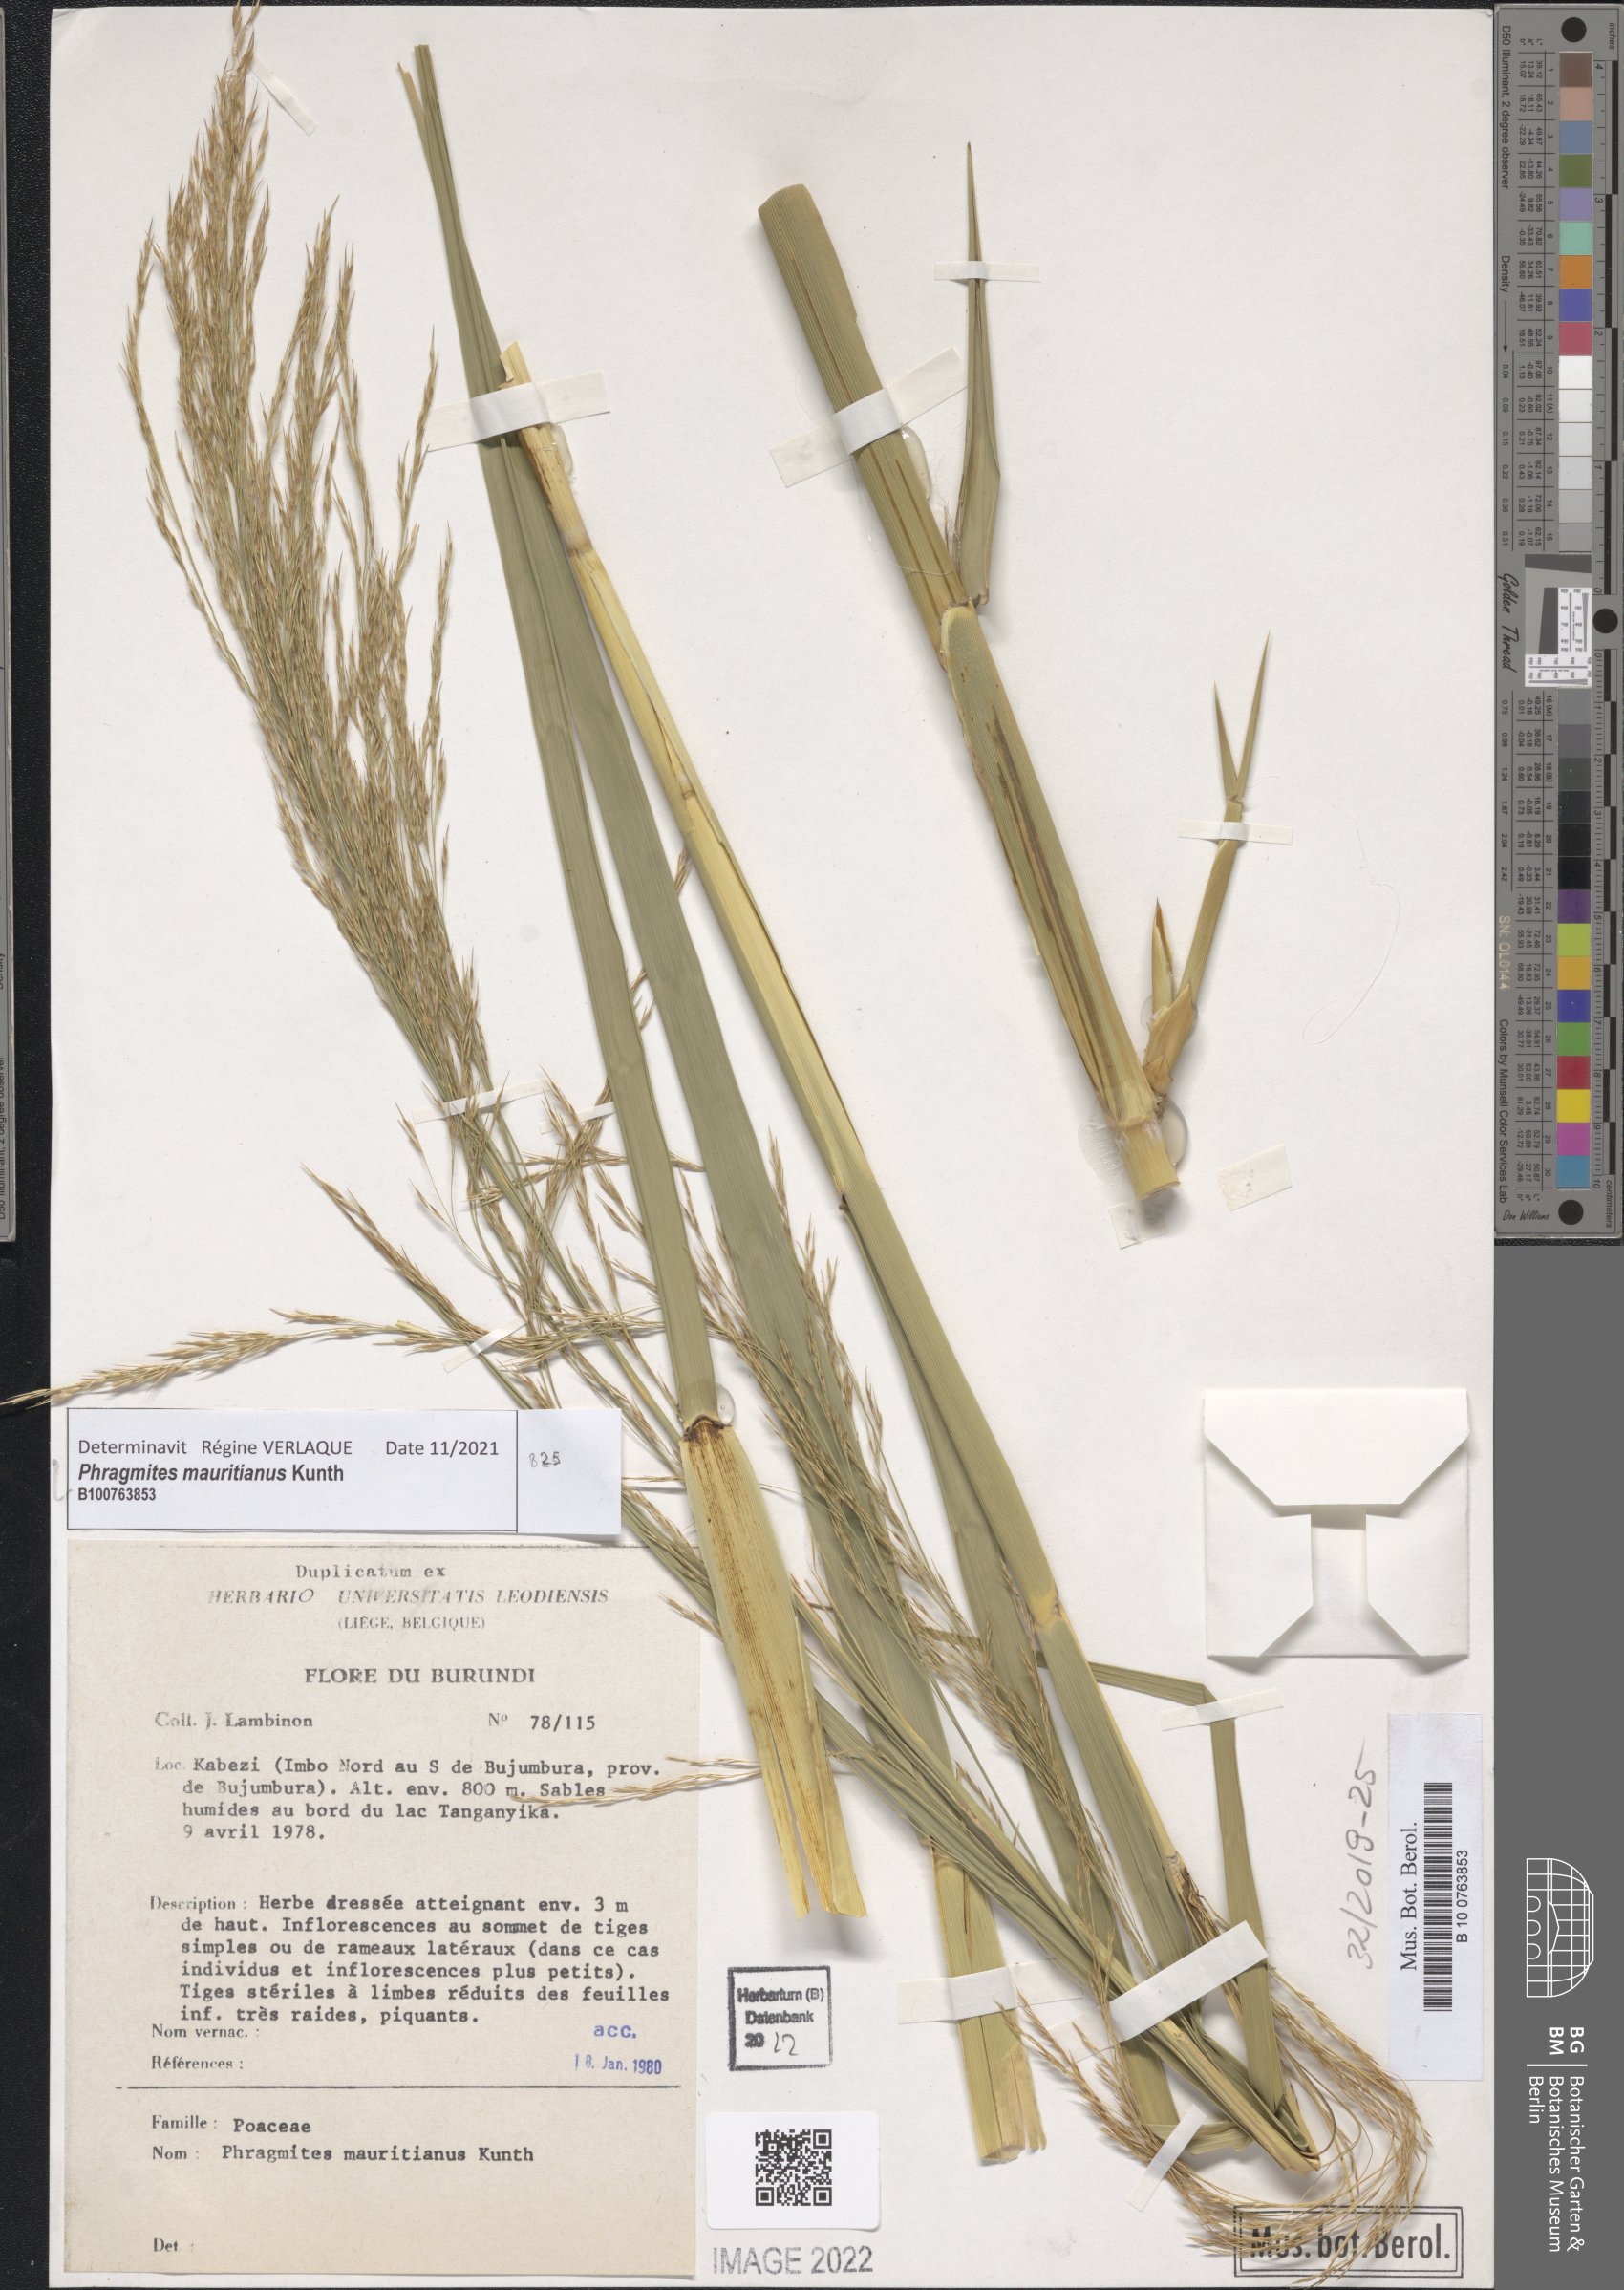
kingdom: Plantae
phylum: Tracheophyta
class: Liliopsida
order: Poales
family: Poaceae
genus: Phragmites
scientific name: Phragmites mauritianus
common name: Reed grass
